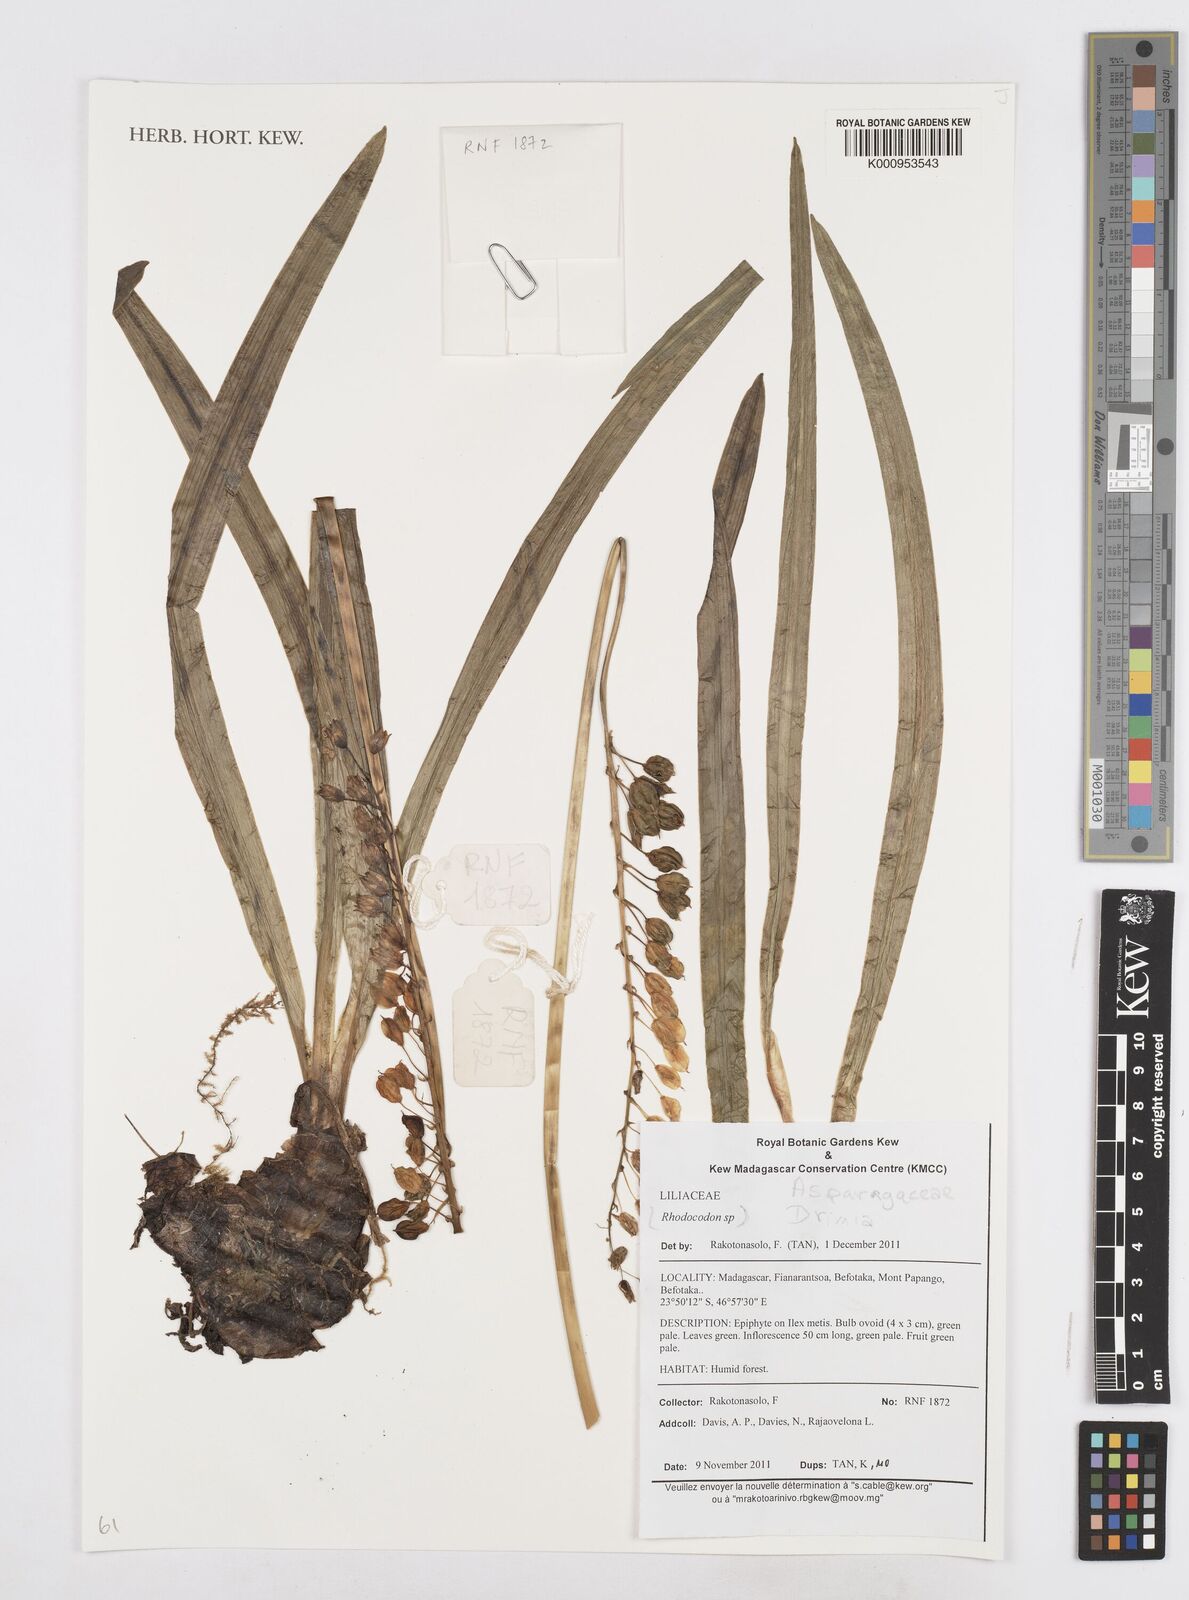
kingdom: Plantae
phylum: Tracheophyta
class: Liliopsida
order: Asparagales
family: Asparagaceae
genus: Drimia
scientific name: Drimia
